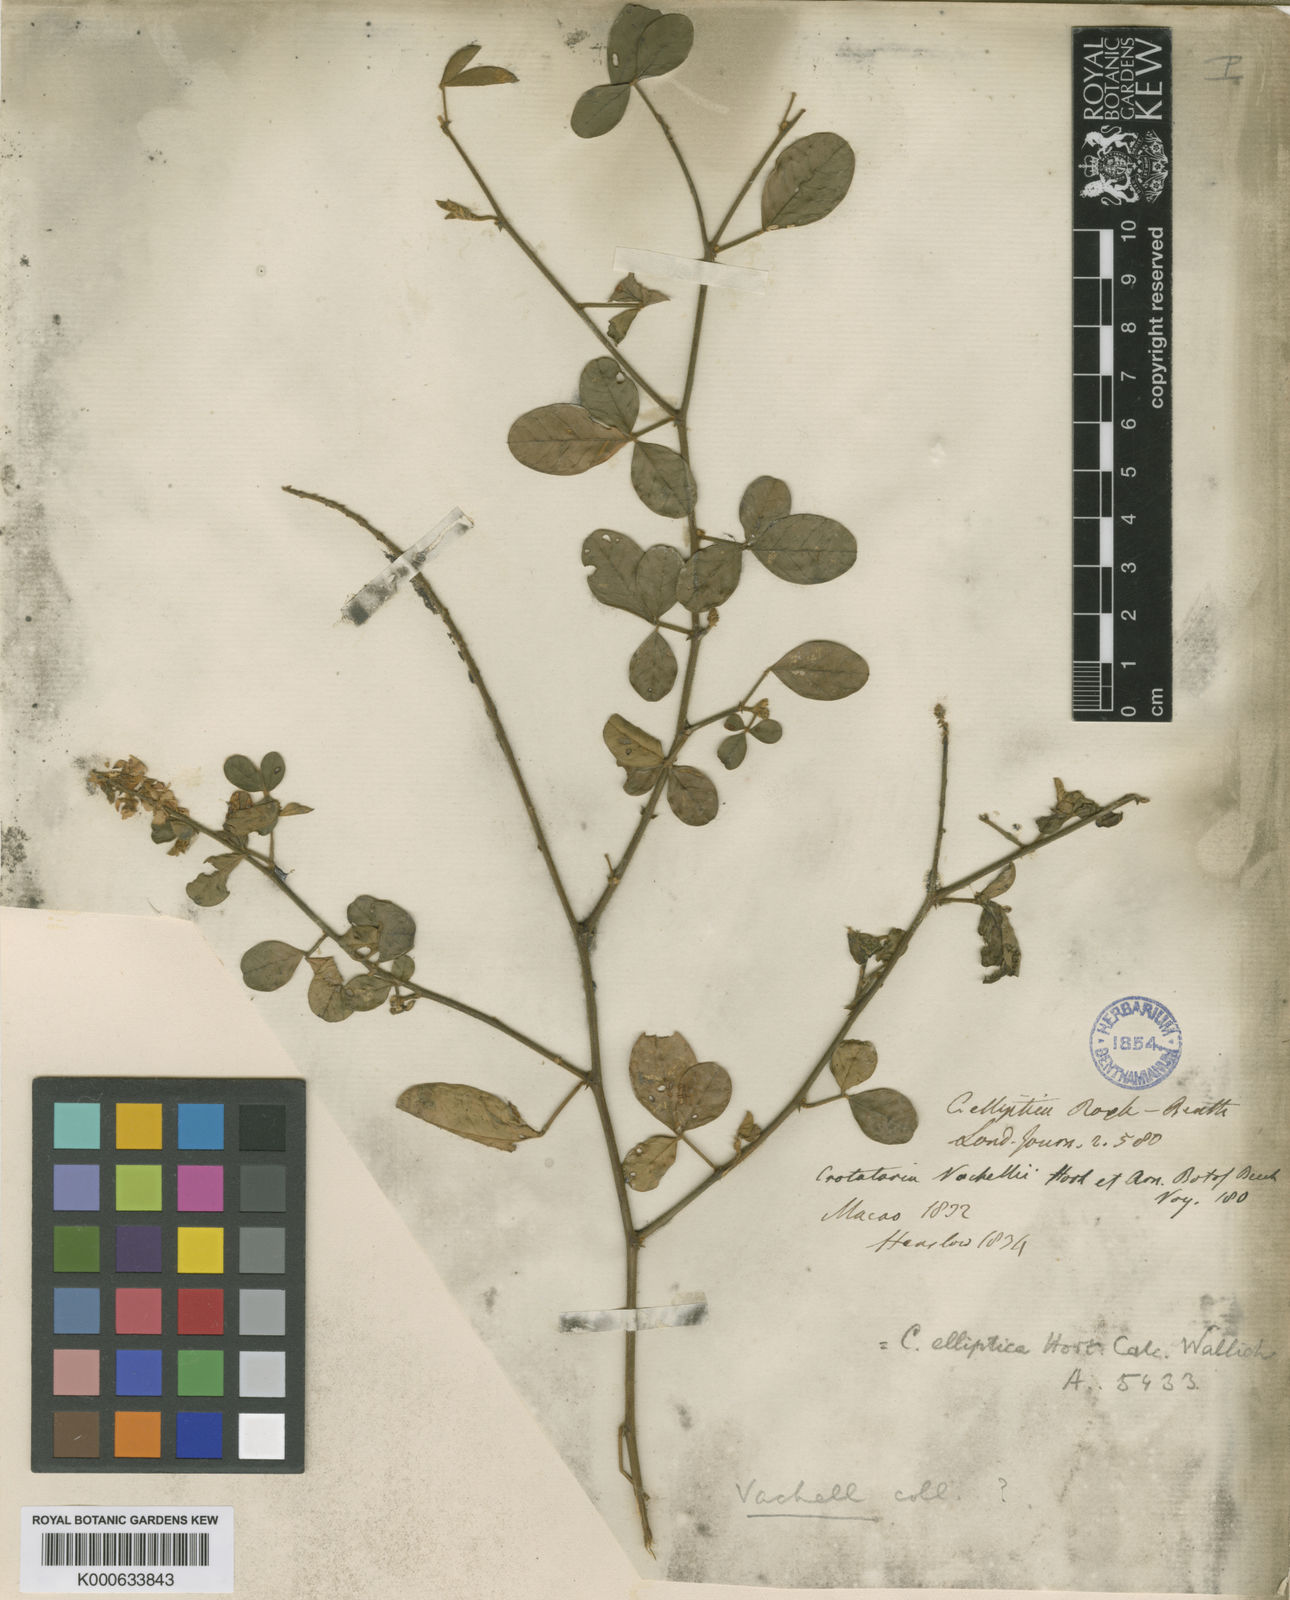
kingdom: Plantae
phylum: Tracheophyta
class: Magnoliopsida
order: Fabales
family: Fabaceae
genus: Crotalaria
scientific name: Crotalaria uncinella
